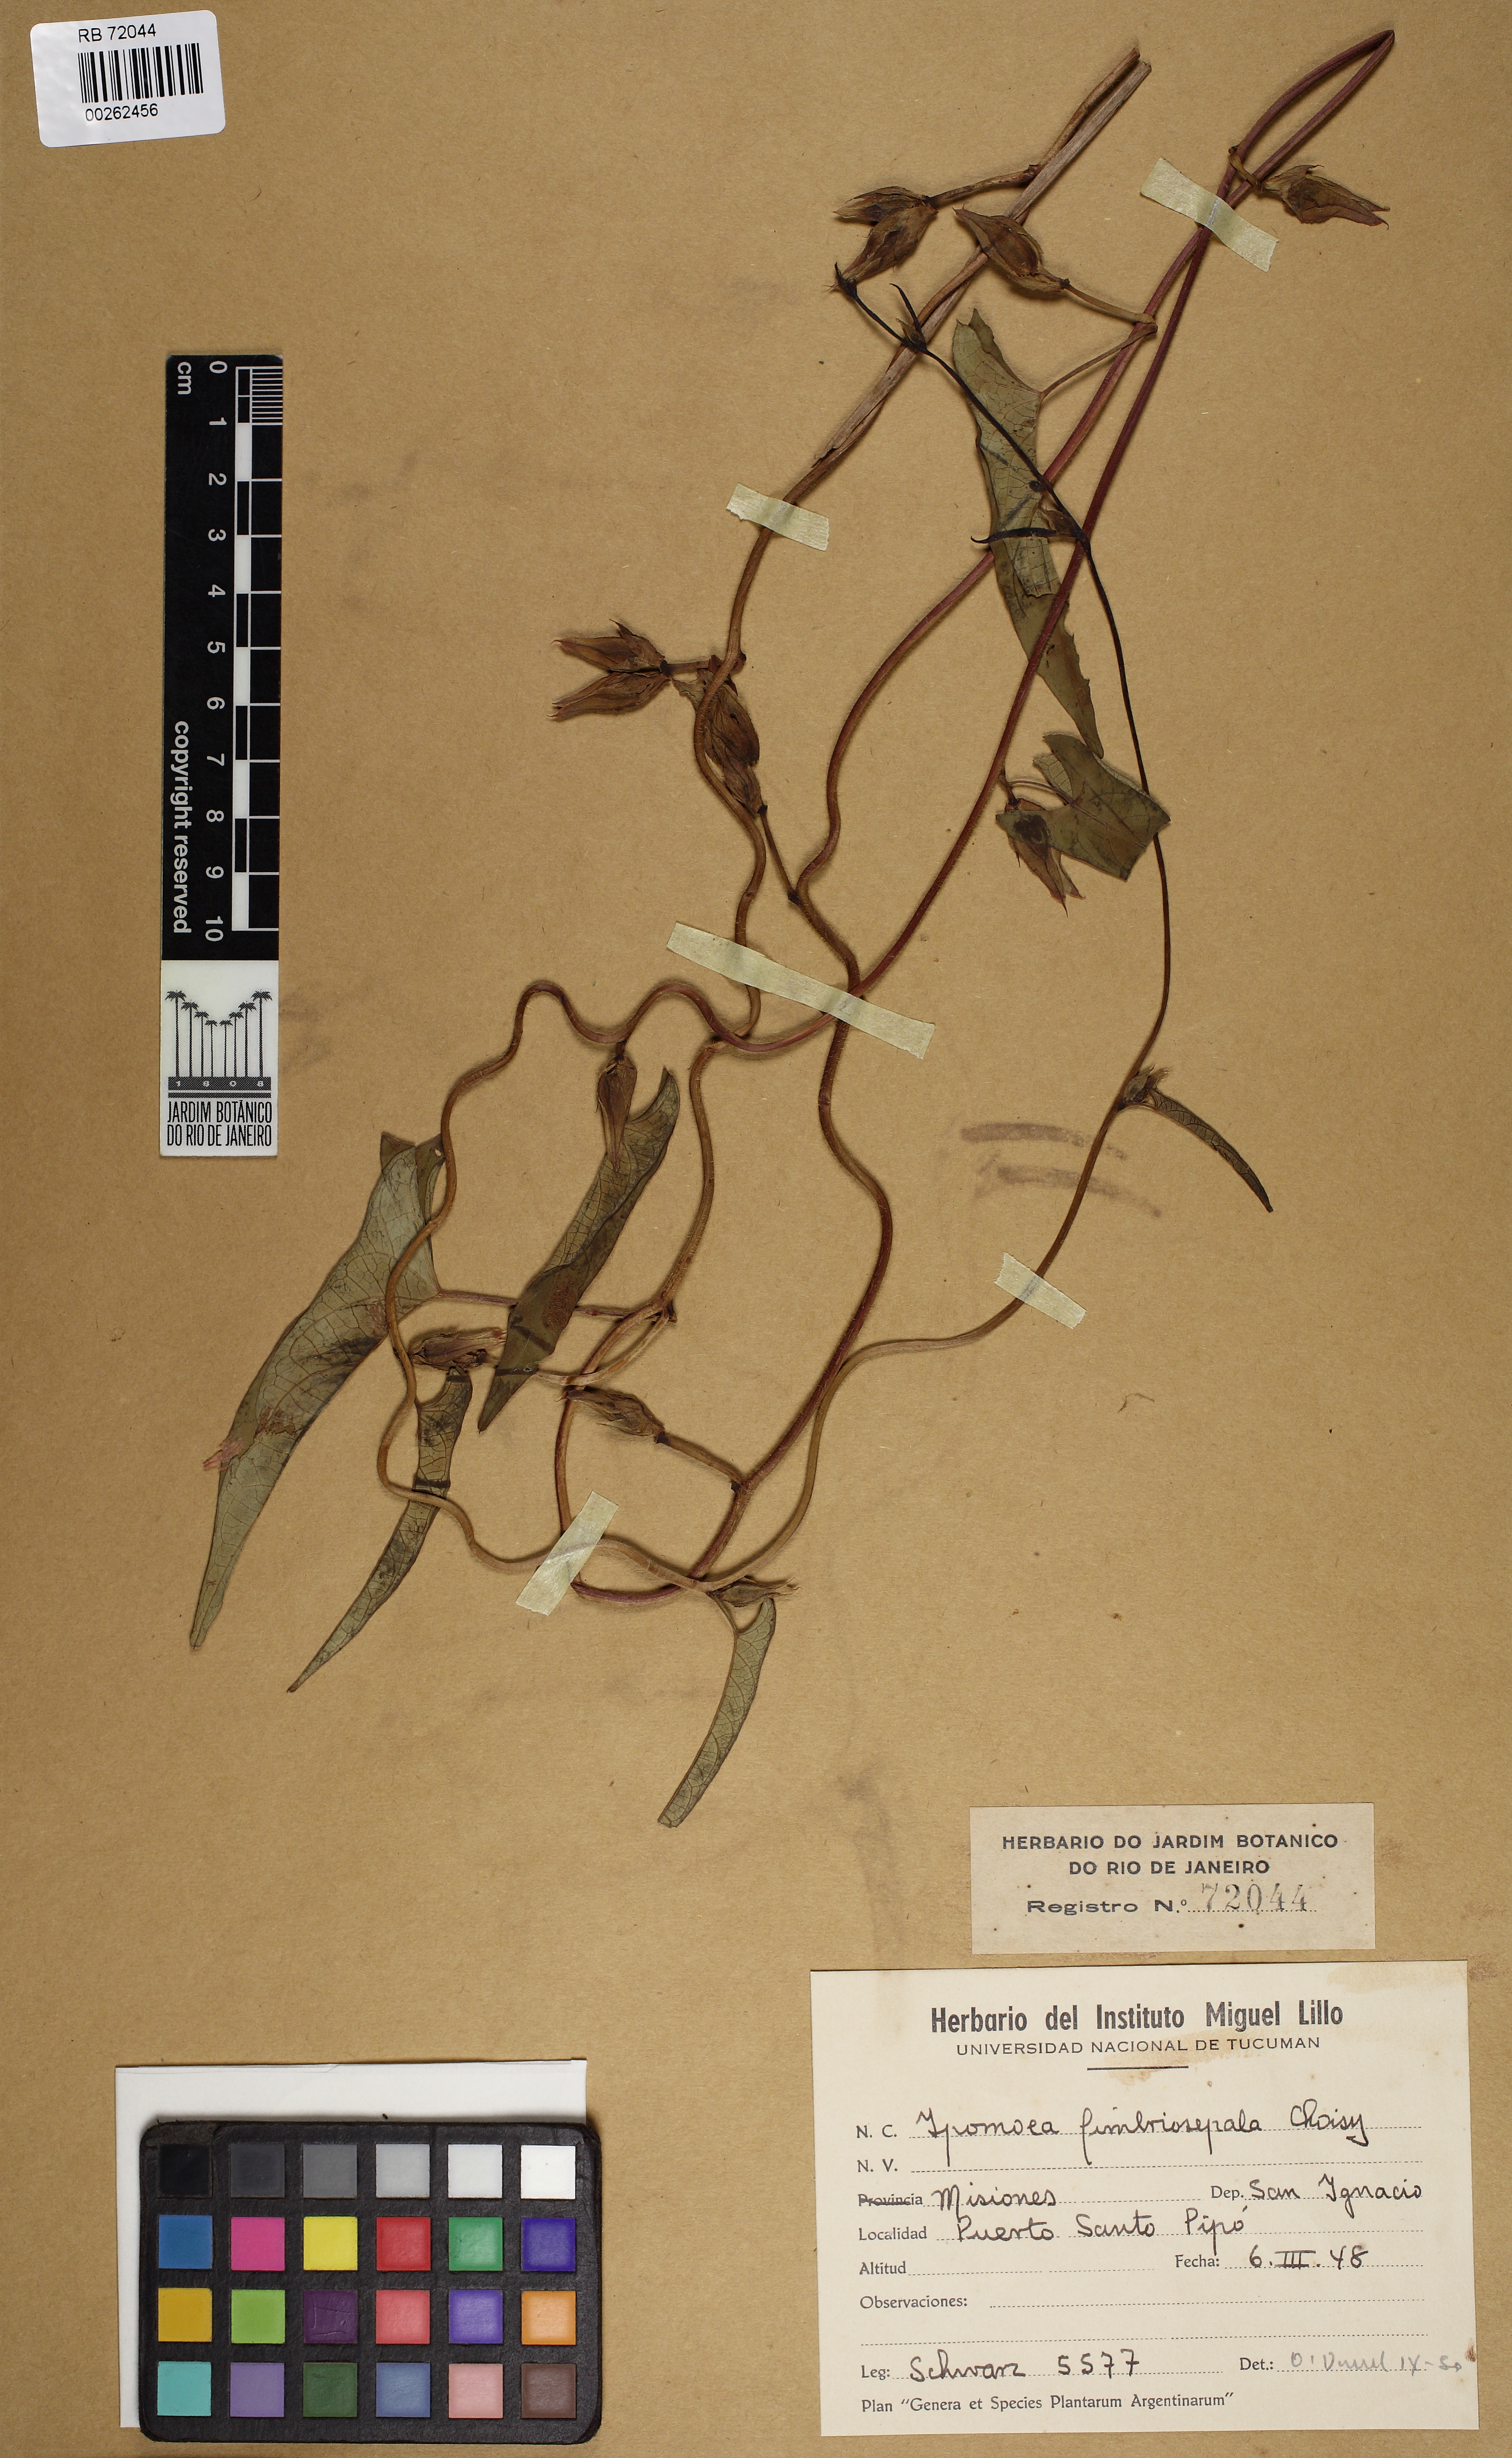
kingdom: Plantae
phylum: Tracheophyta
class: Magnoliopsida
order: Solanales
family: Convolvulaceae
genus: Ipomoea
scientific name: Ipomoea fimbriosepala
